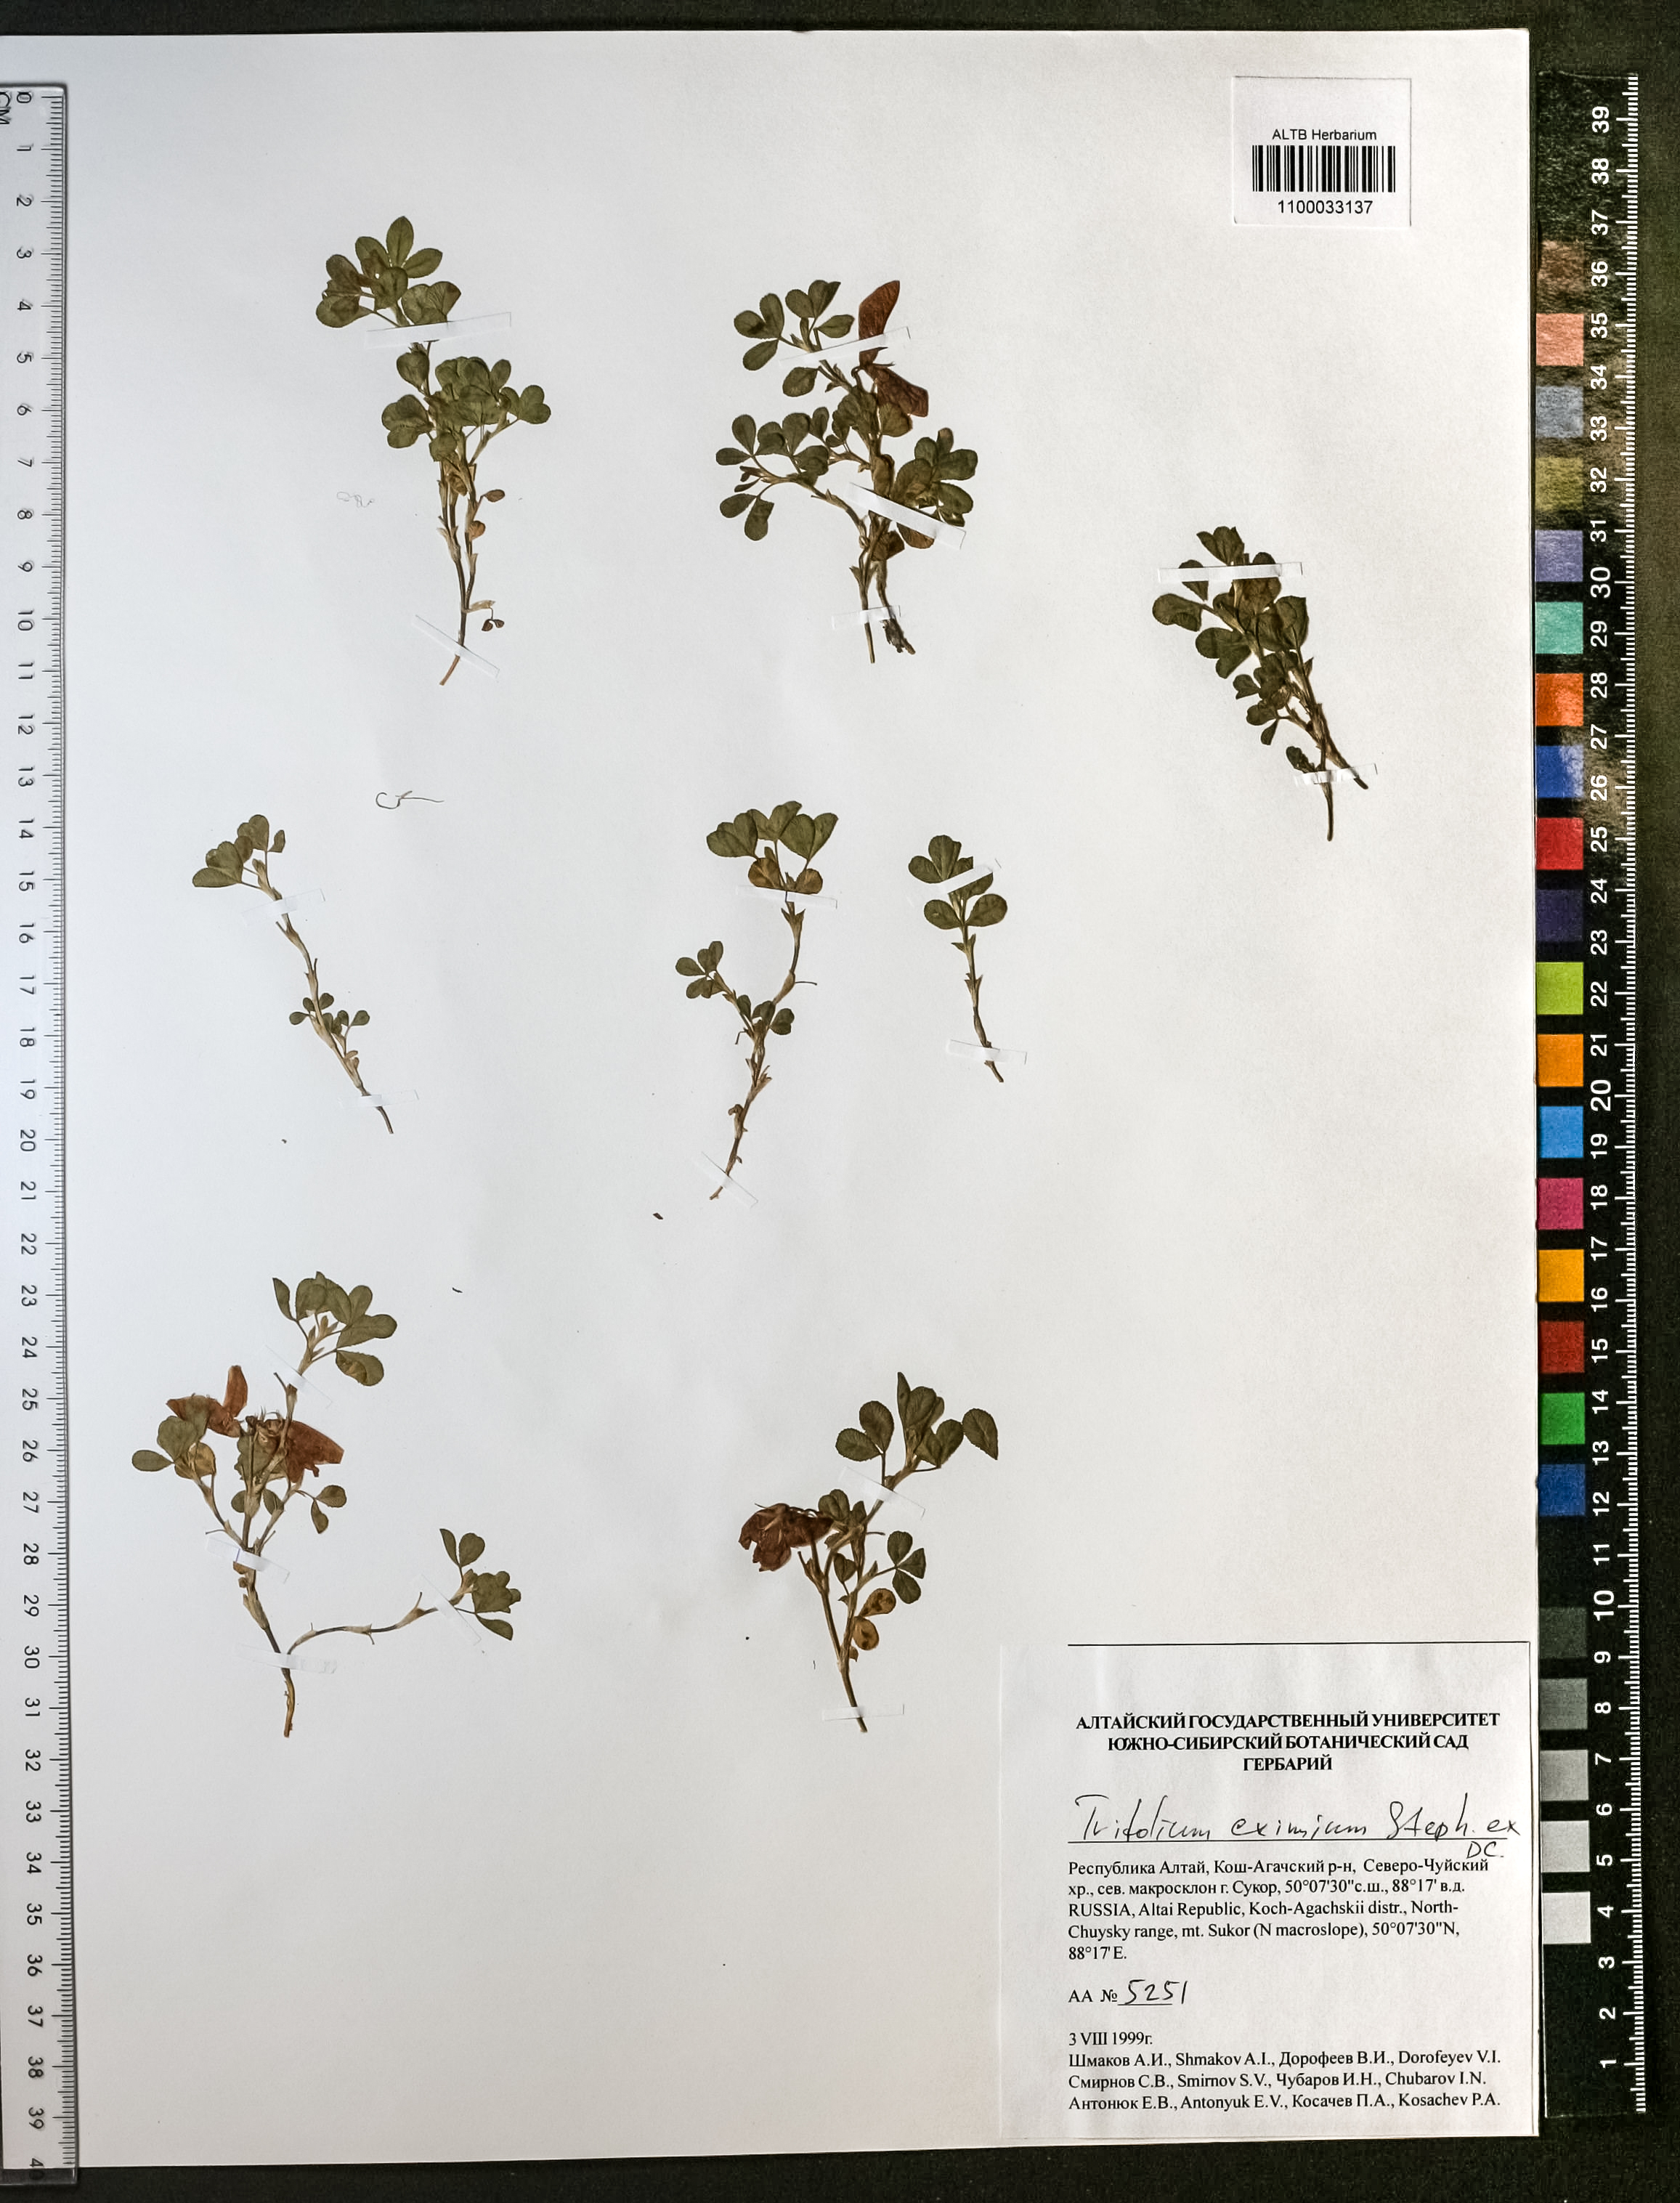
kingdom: Plantae
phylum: Tracheophyta
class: Magnoliopsida
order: Fabales
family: Fabaceae
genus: Trifolium
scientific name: Trifolium eximium
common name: Excellent clover
